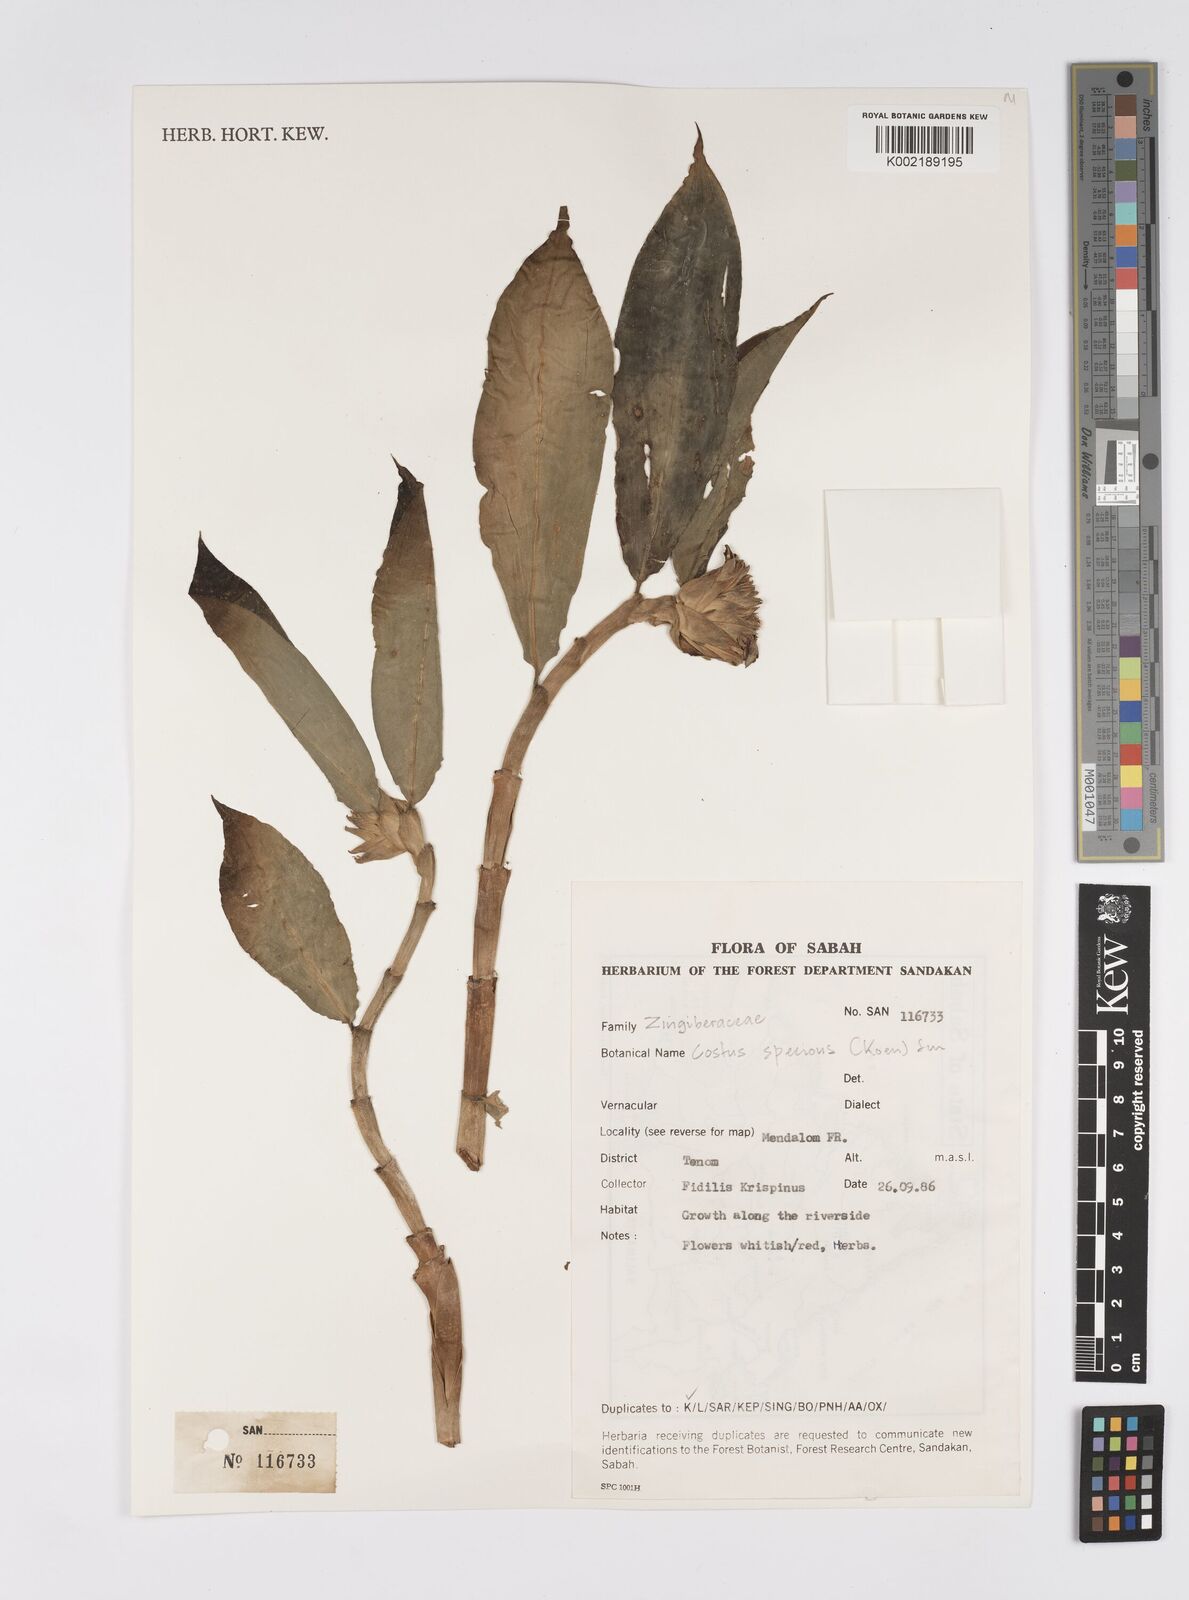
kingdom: Plantae
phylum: Tracheophyta
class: Liliopsida
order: Zingiberales
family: Costaceae
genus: Hellenia
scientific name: Hellenia speciosa
